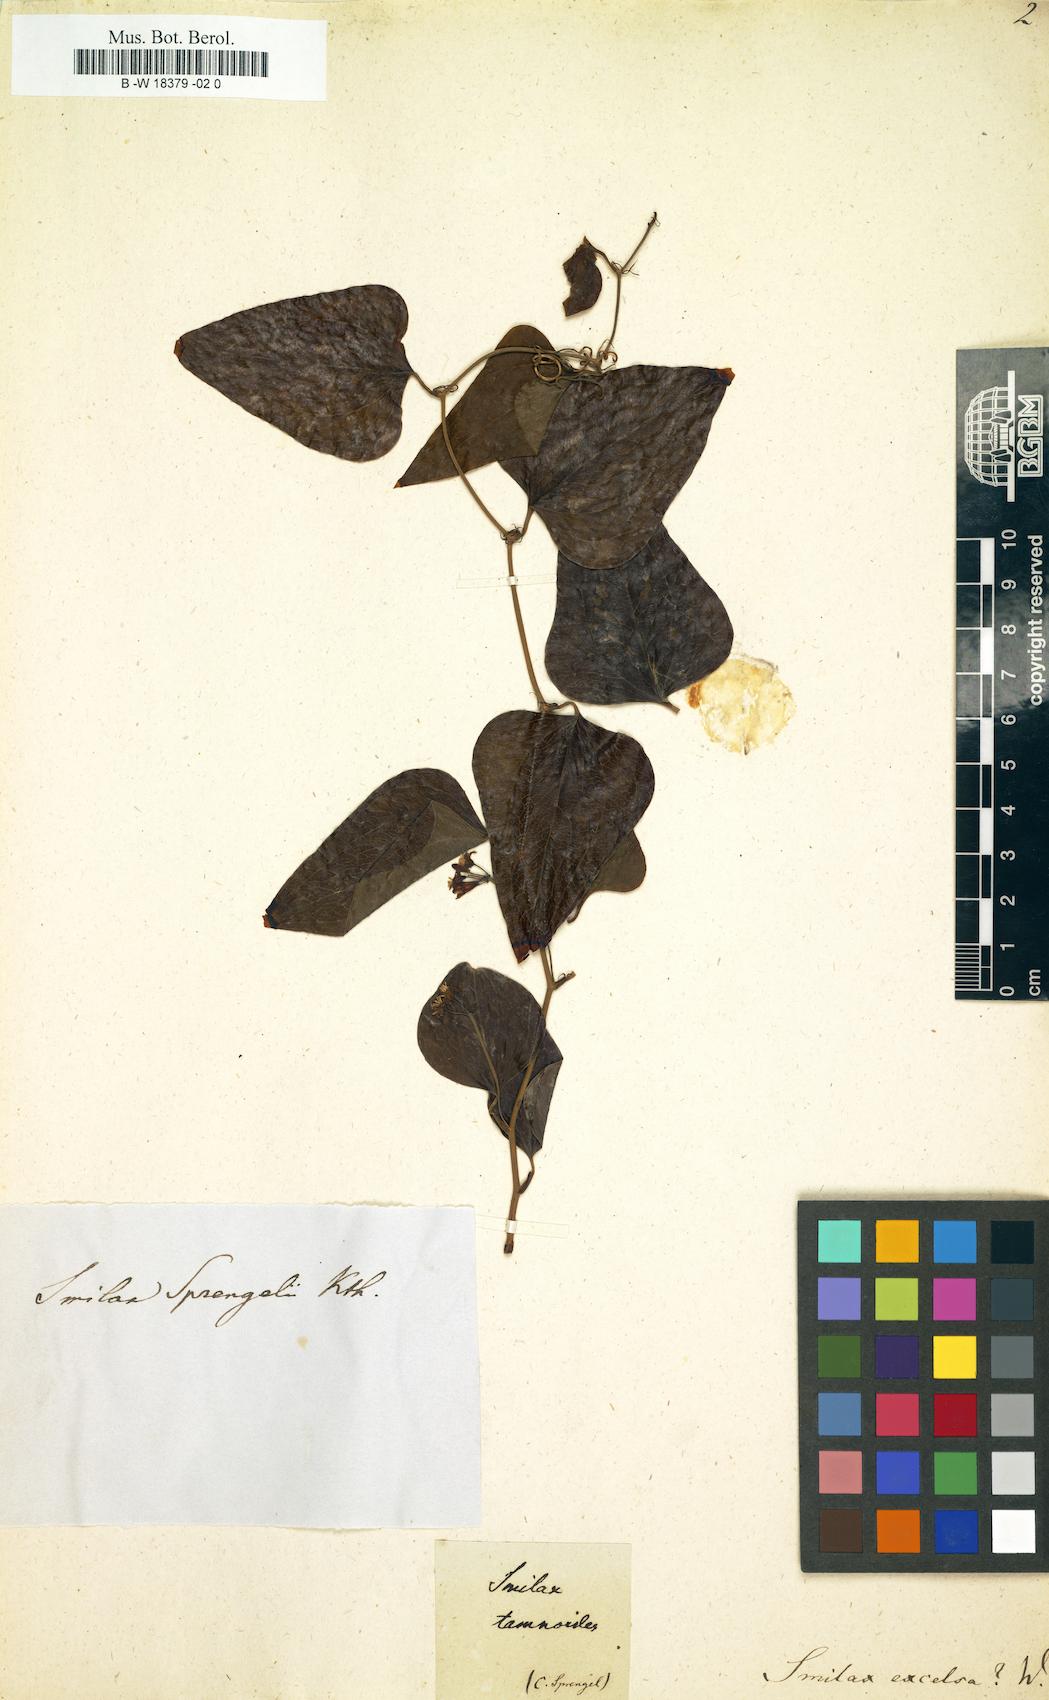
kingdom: Plantae
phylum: Tracheophyta
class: Liliopsida
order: Liliales
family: Smilacaceae
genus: Smilax
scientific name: Smilax excelsa
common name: Larger smilax
